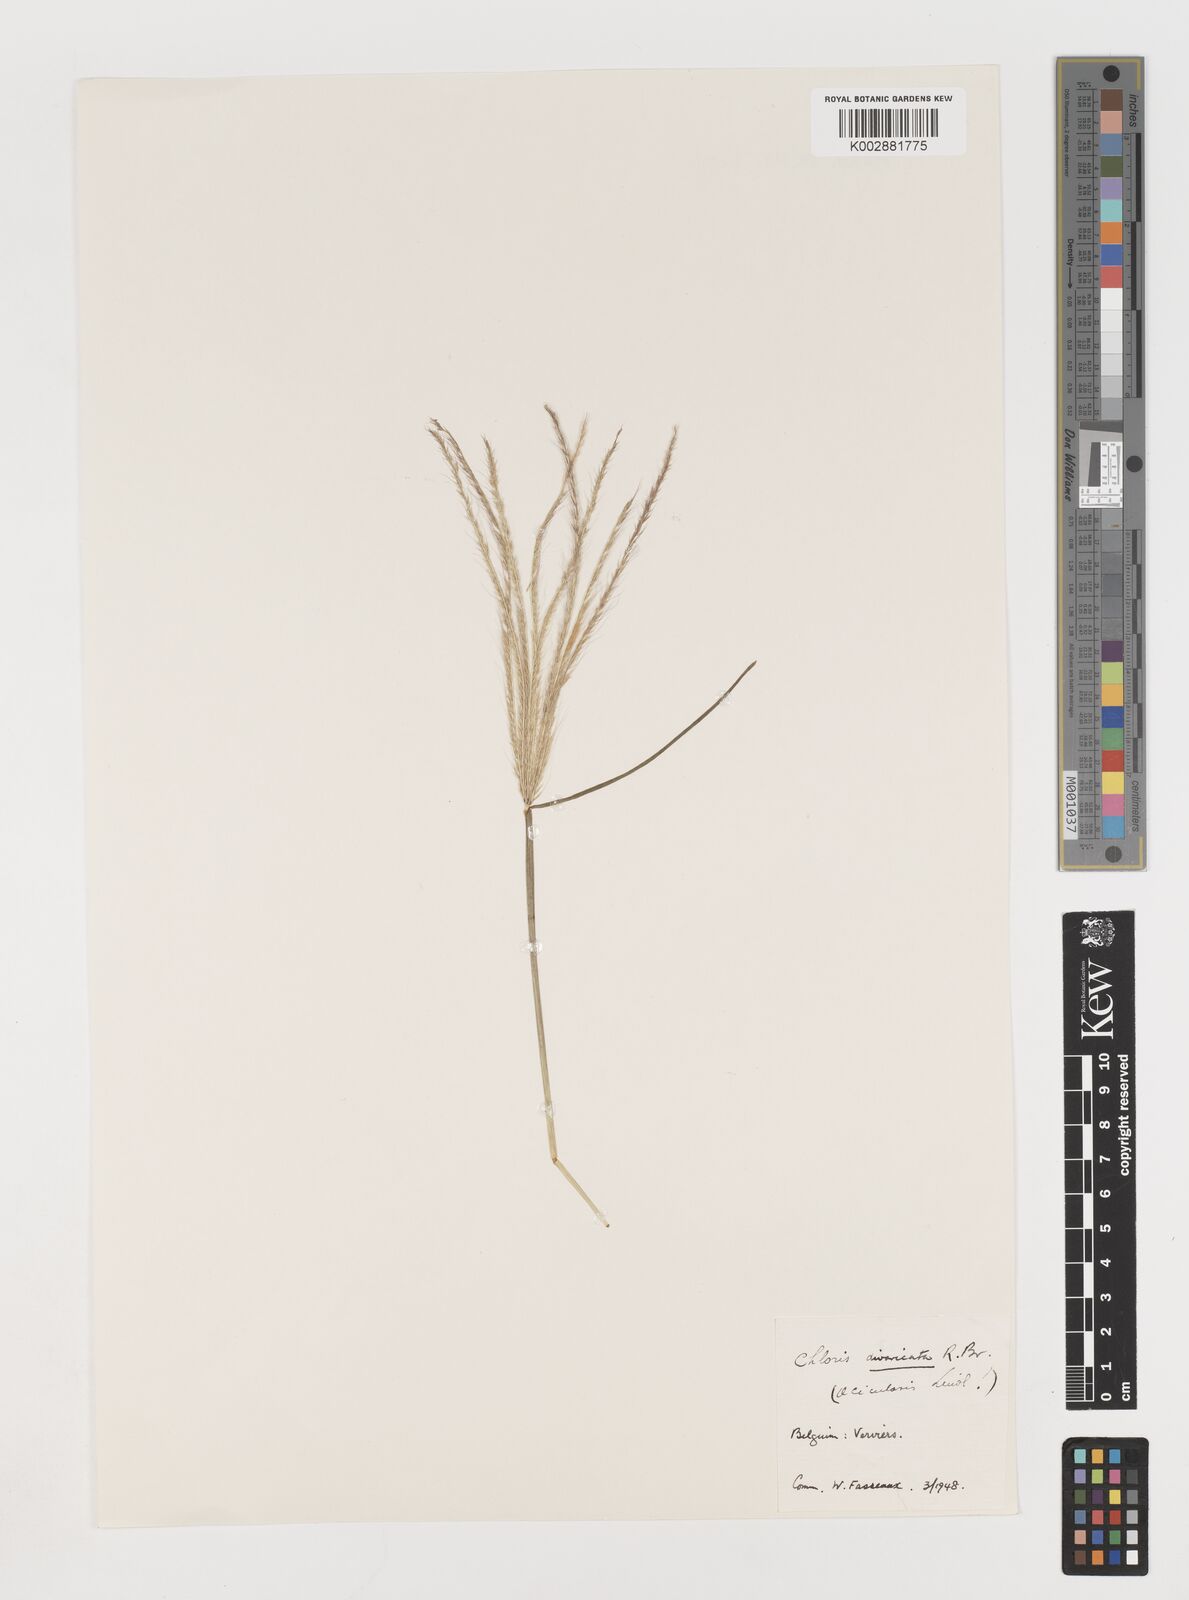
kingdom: Plantae
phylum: Tracheophyta
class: Liliopsida
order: Poales
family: Poaceae
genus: Chloris
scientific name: Chloris divaricata
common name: Spreading windmill grass
